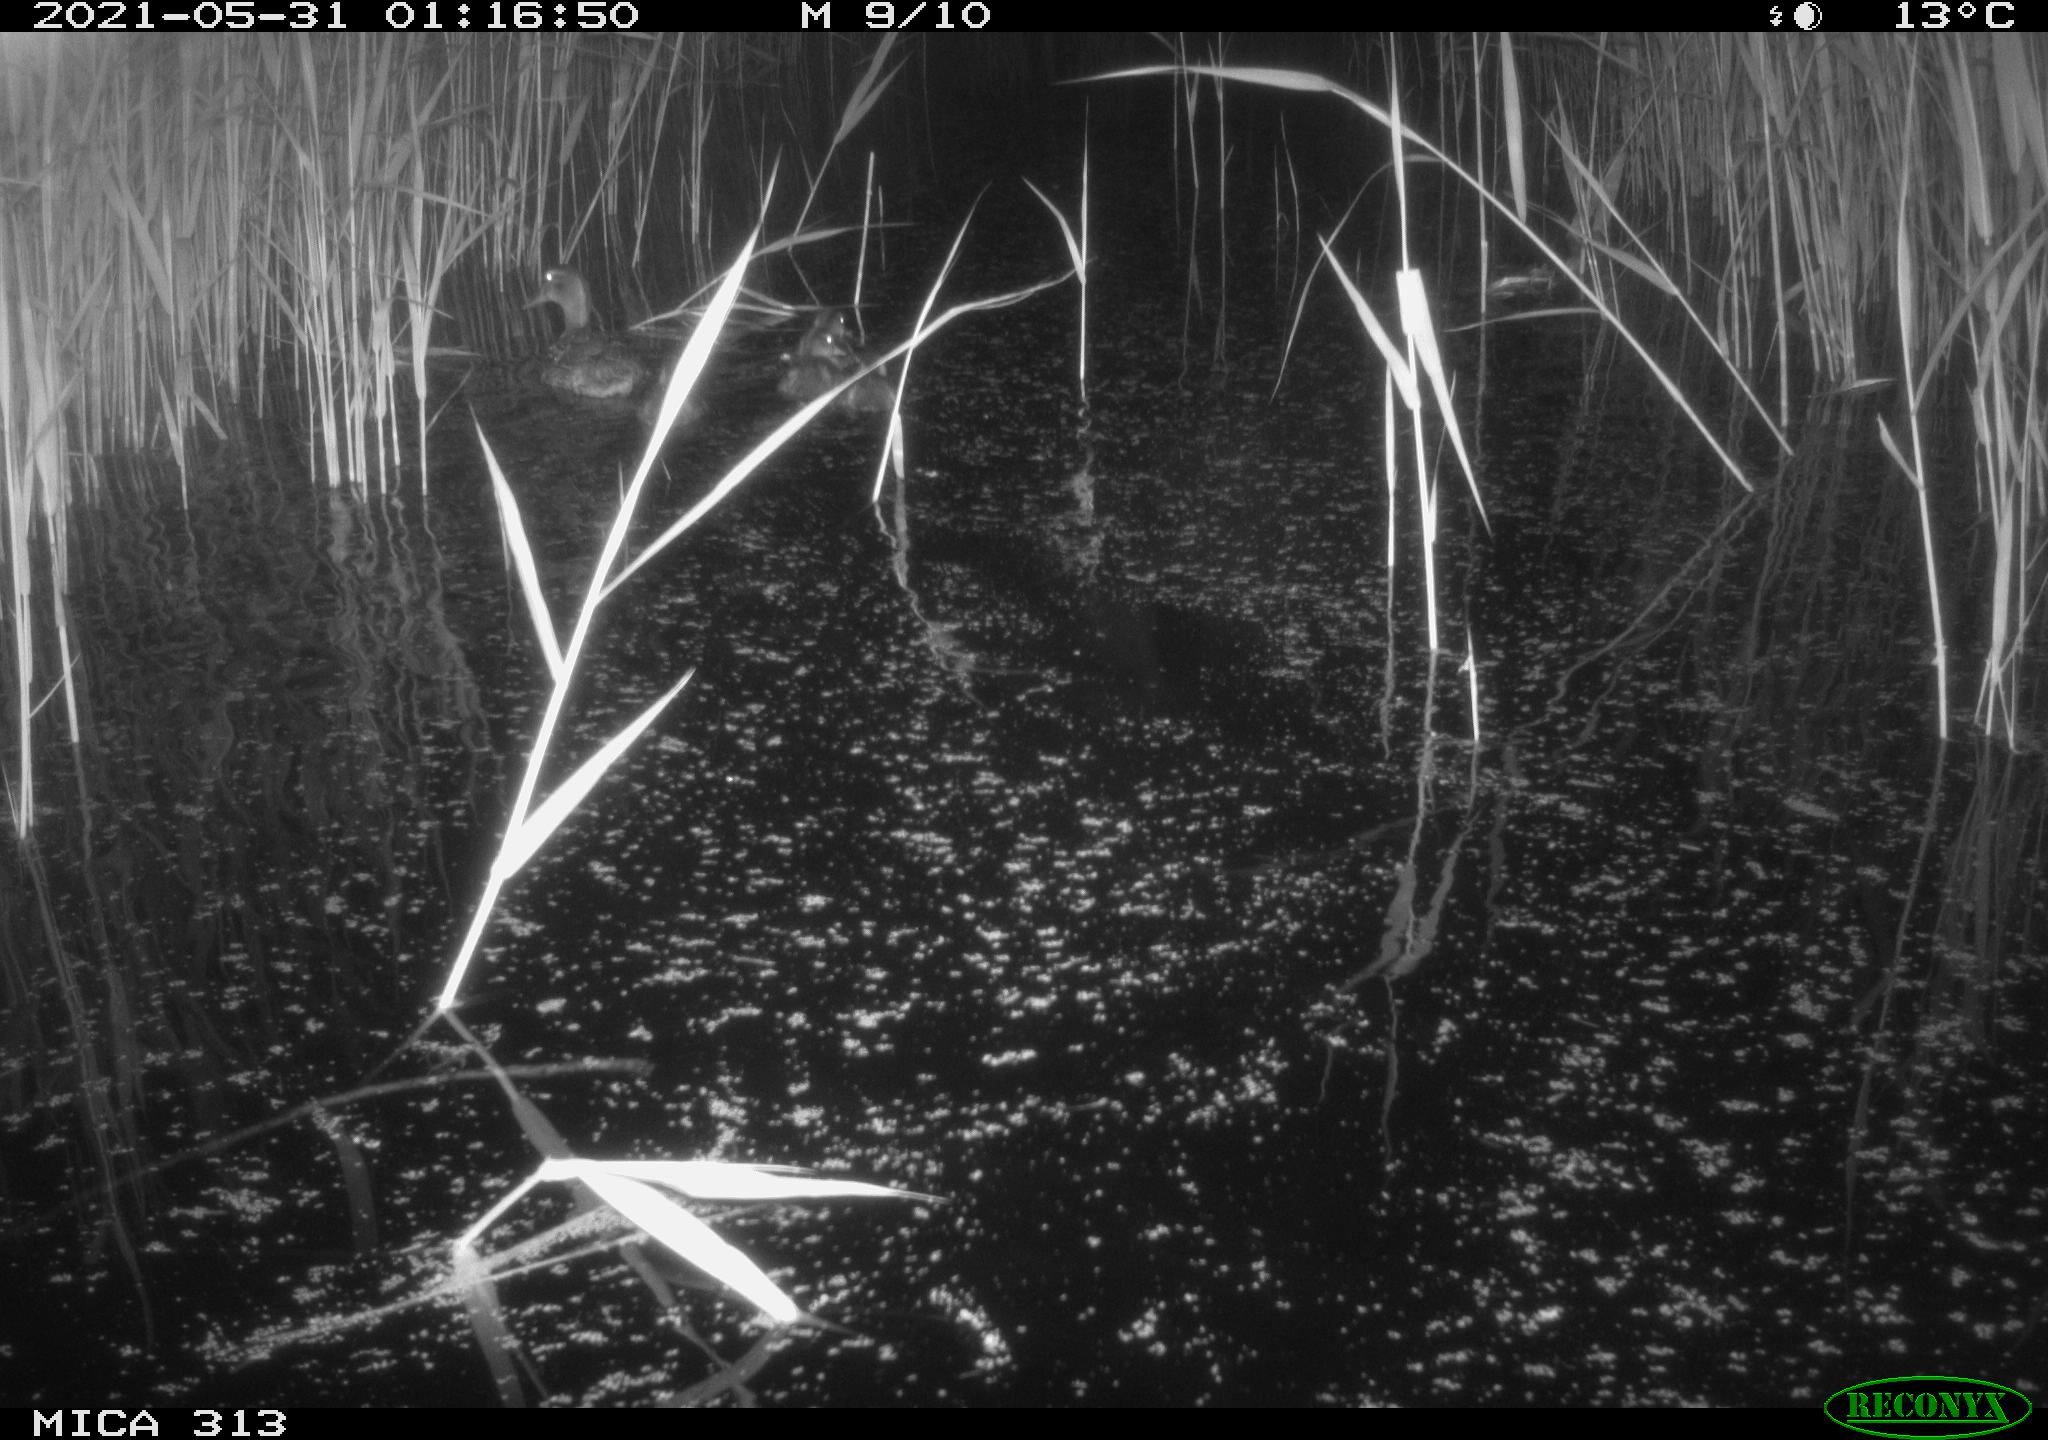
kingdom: Animalia
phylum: Chordata
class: Aves
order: Anseriformes
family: Anatidae
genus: Anas
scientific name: Anas platyrhynchos
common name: Mallard
